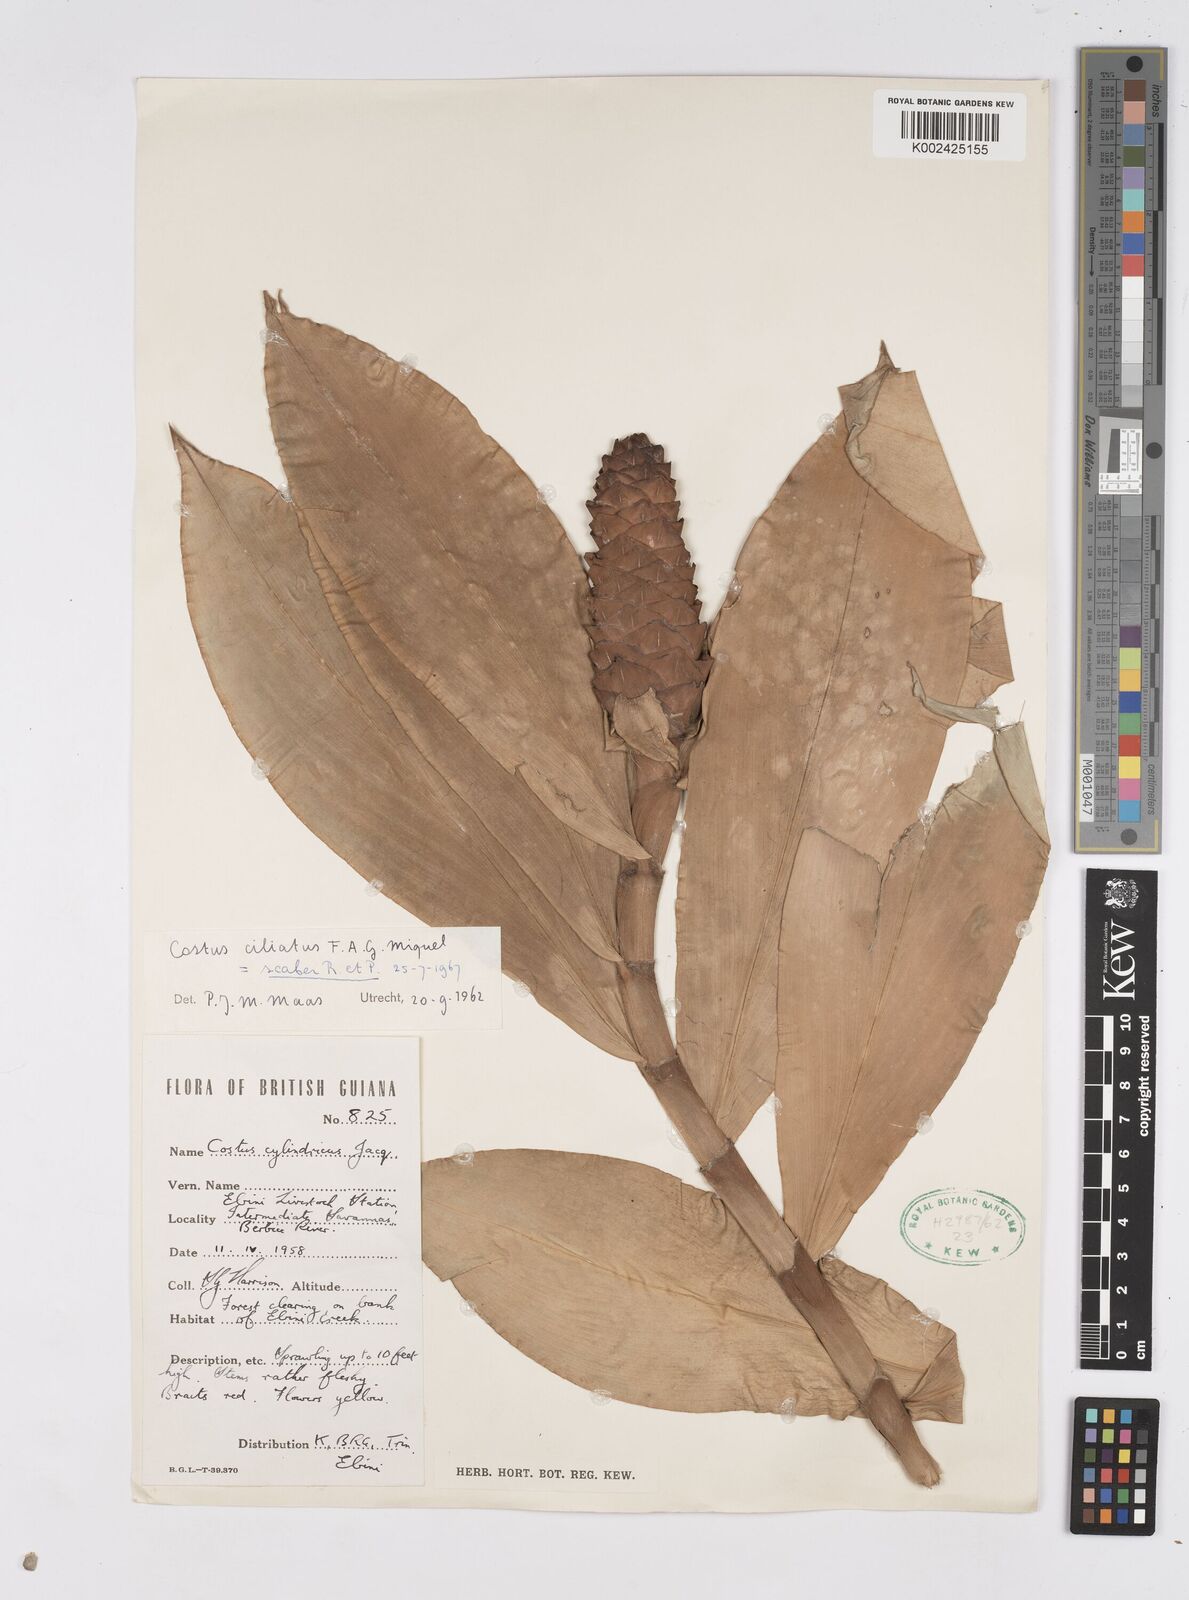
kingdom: Plantae
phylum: Tracheophyta
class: Liliopsida
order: Zingiberales
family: Costaceae
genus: Costus
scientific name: Costus scaber
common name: Spiral head ginger
